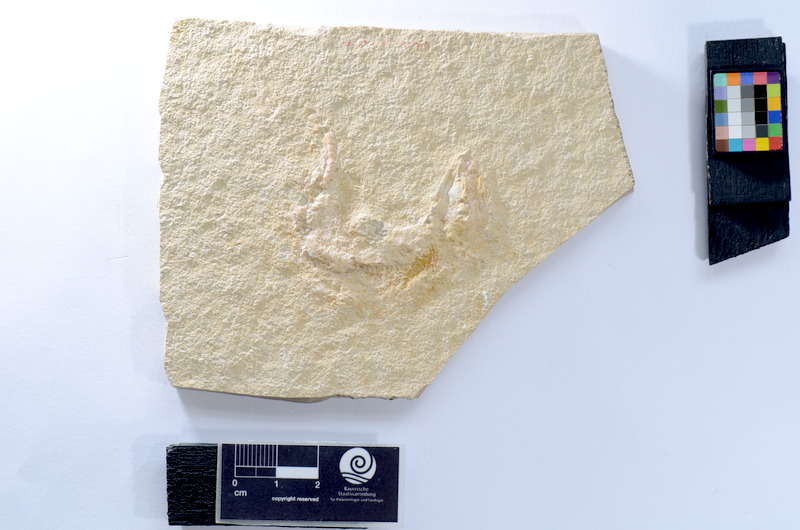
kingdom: Animalia
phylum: Chordata
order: Salmoniformes
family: Orthogonikleithridae
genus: Leptolepides
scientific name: Leptolepides
